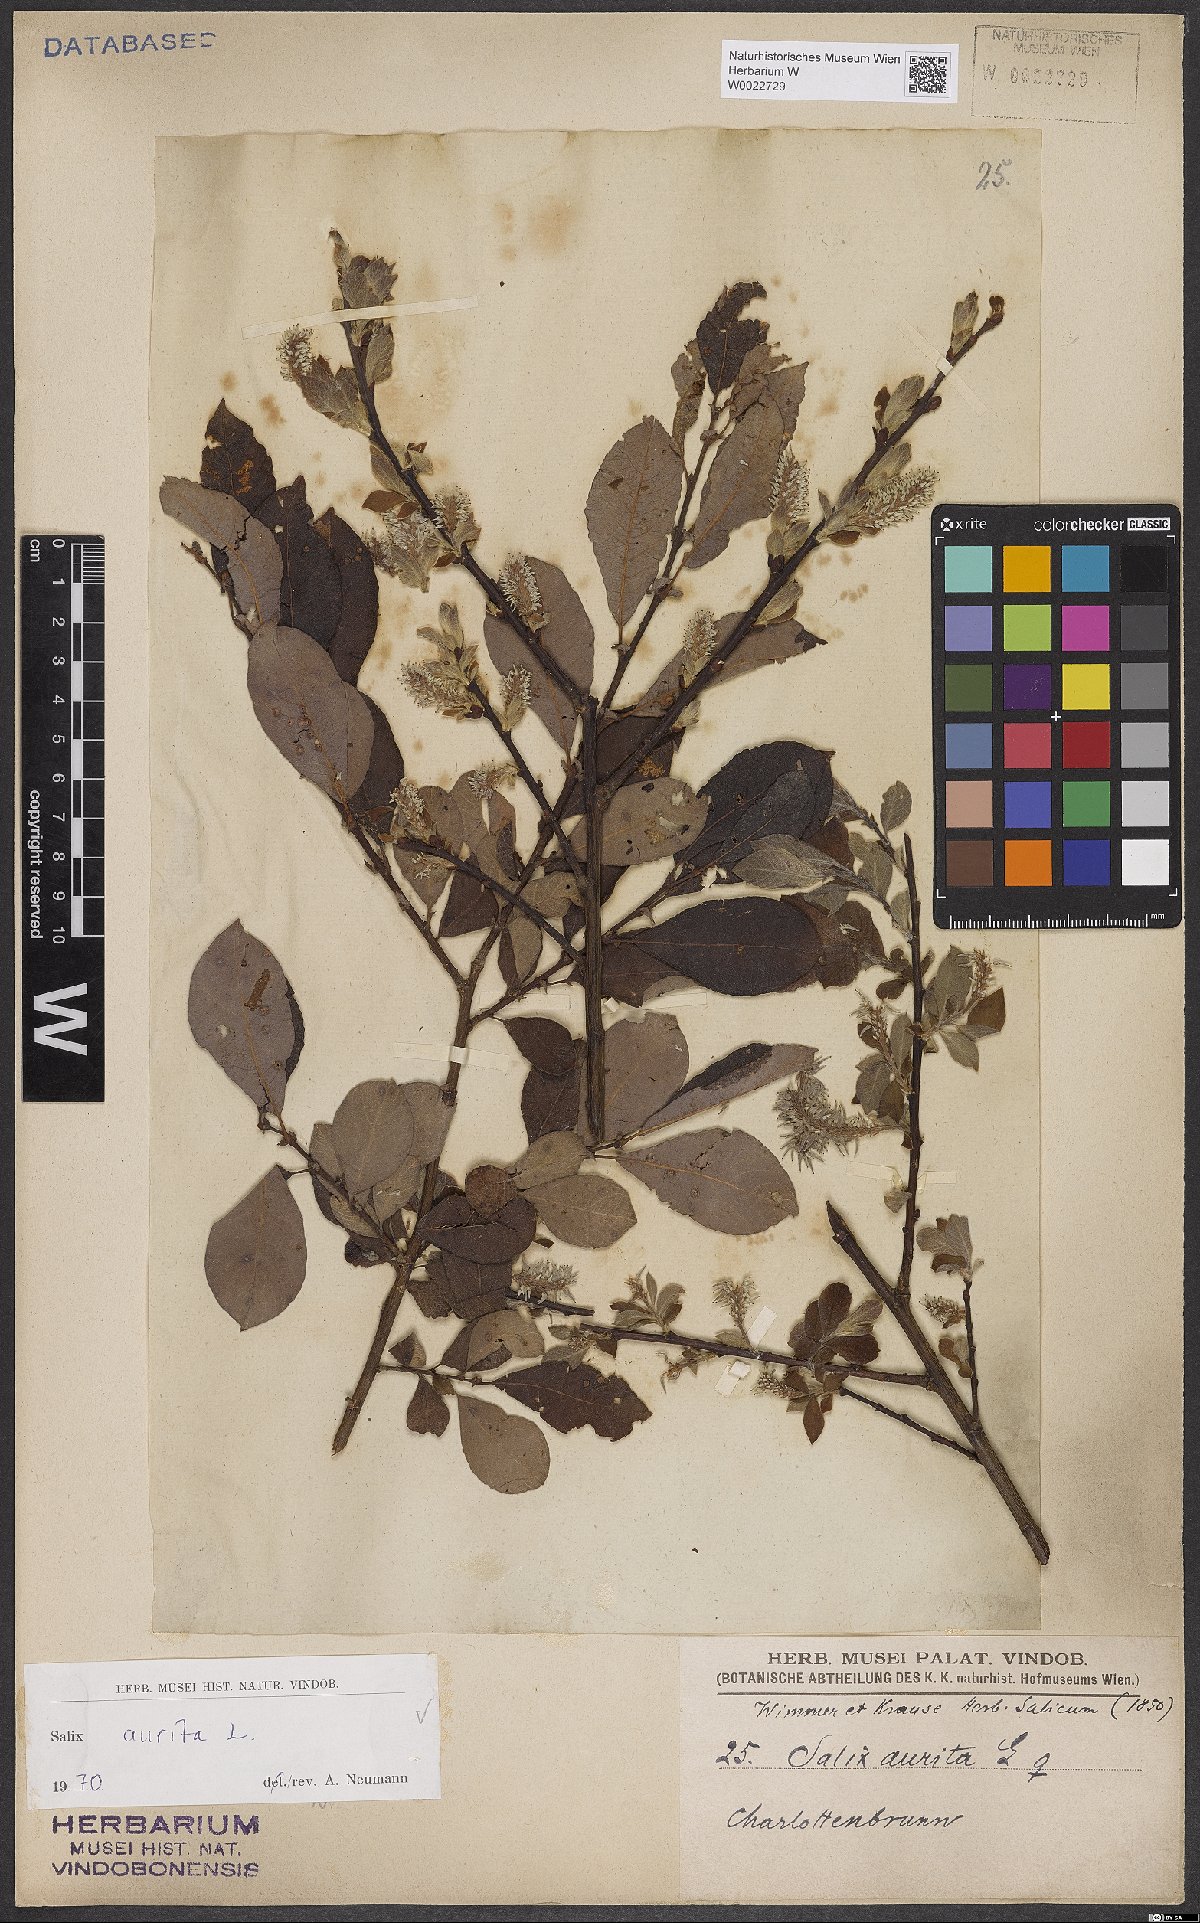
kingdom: Plantae
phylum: Tracheophyta
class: Magnoliopsida
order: Malpighiales
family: Salicaceae
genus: Salix
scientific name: Salix aurita
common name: Eared willow
